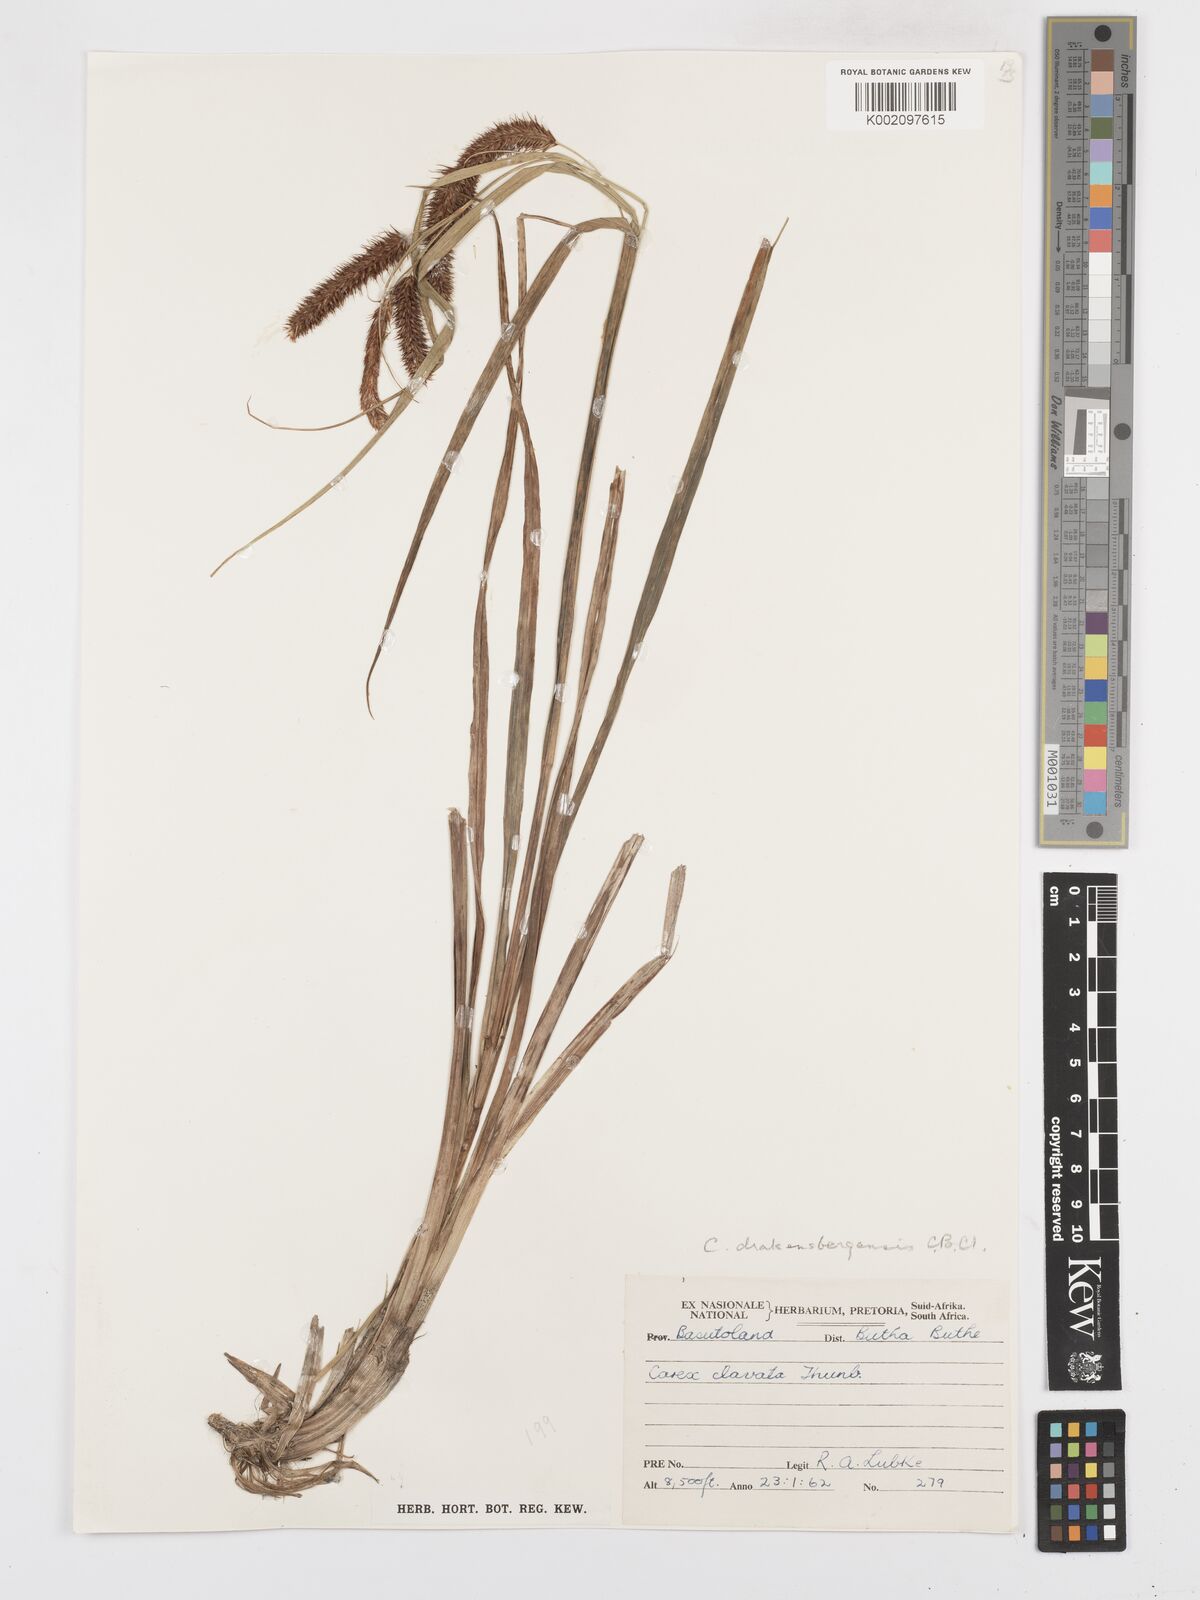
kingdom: Plantae
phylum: Tracheophyta
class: Liliopsida
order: Poales
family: Cyperaceae
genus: Carex
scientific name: Carex cognata
